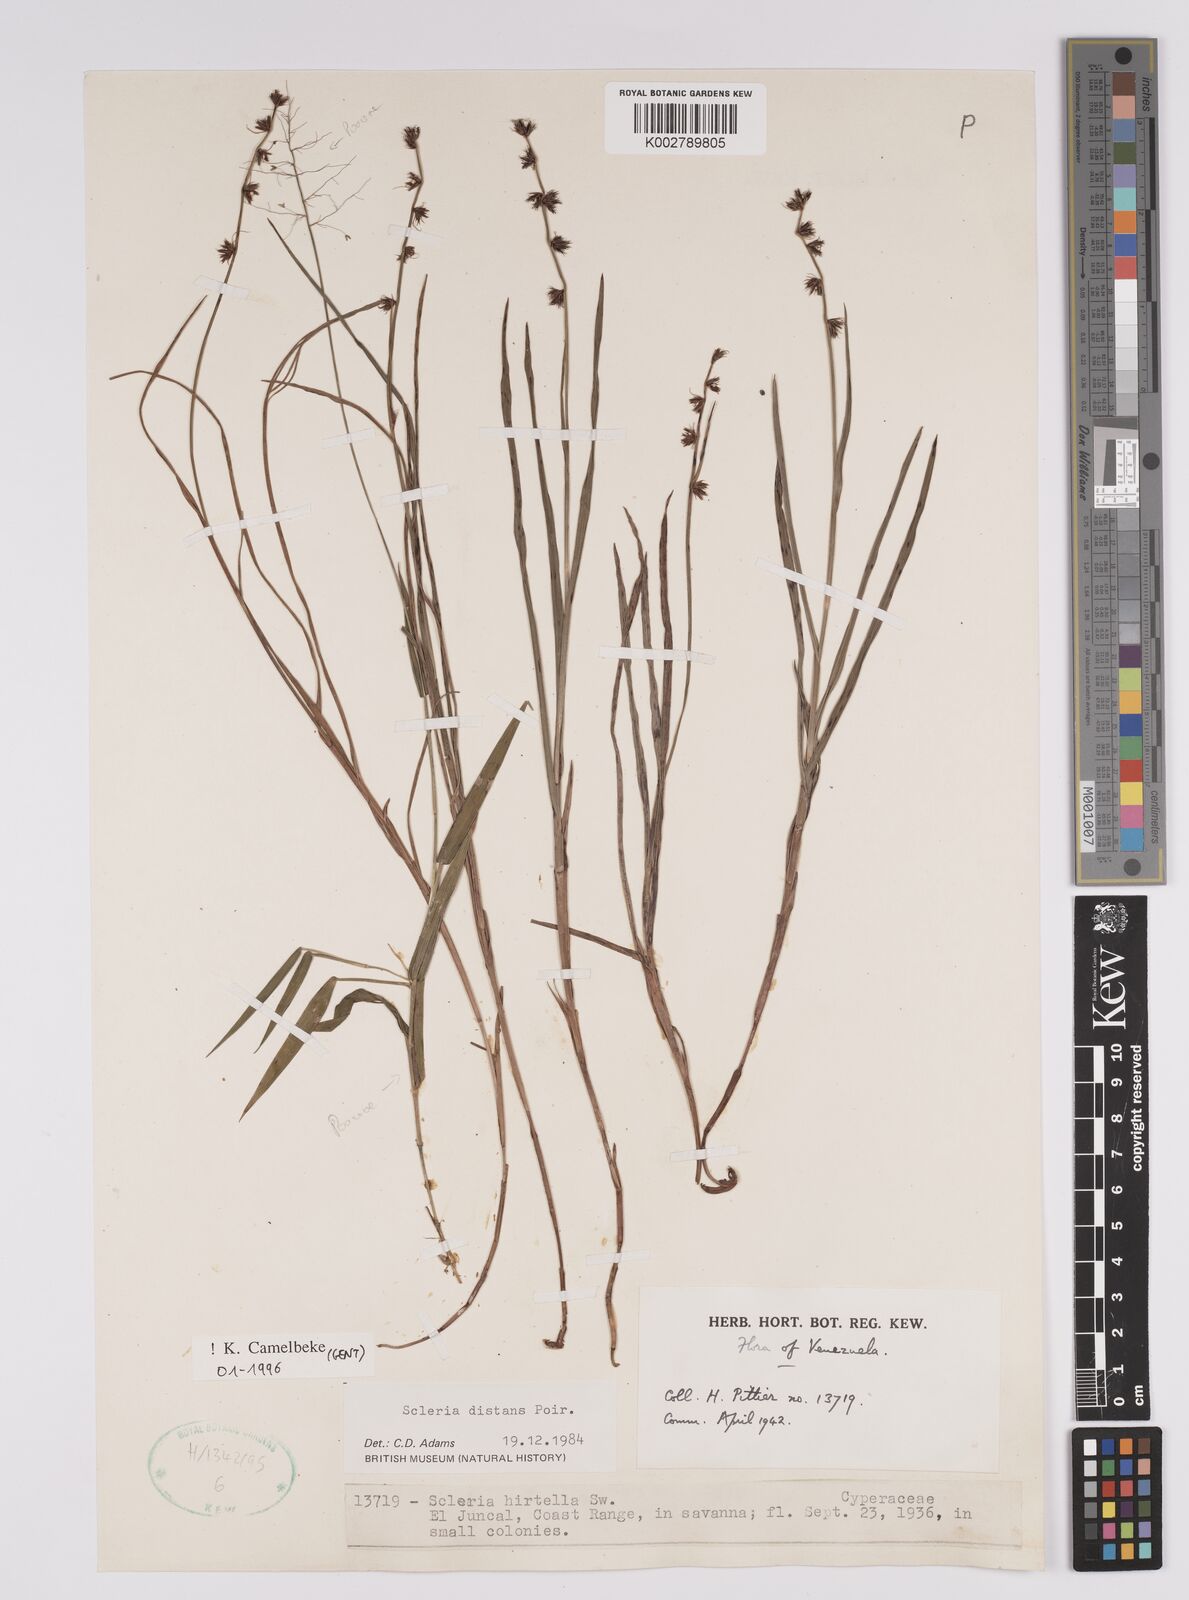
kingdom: Plantae
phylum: Tracheophyta
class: Liliopsida
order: Poales
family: Cyperaceae
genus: Scleria
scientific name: Scleria verticillata
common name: Low nutrush
